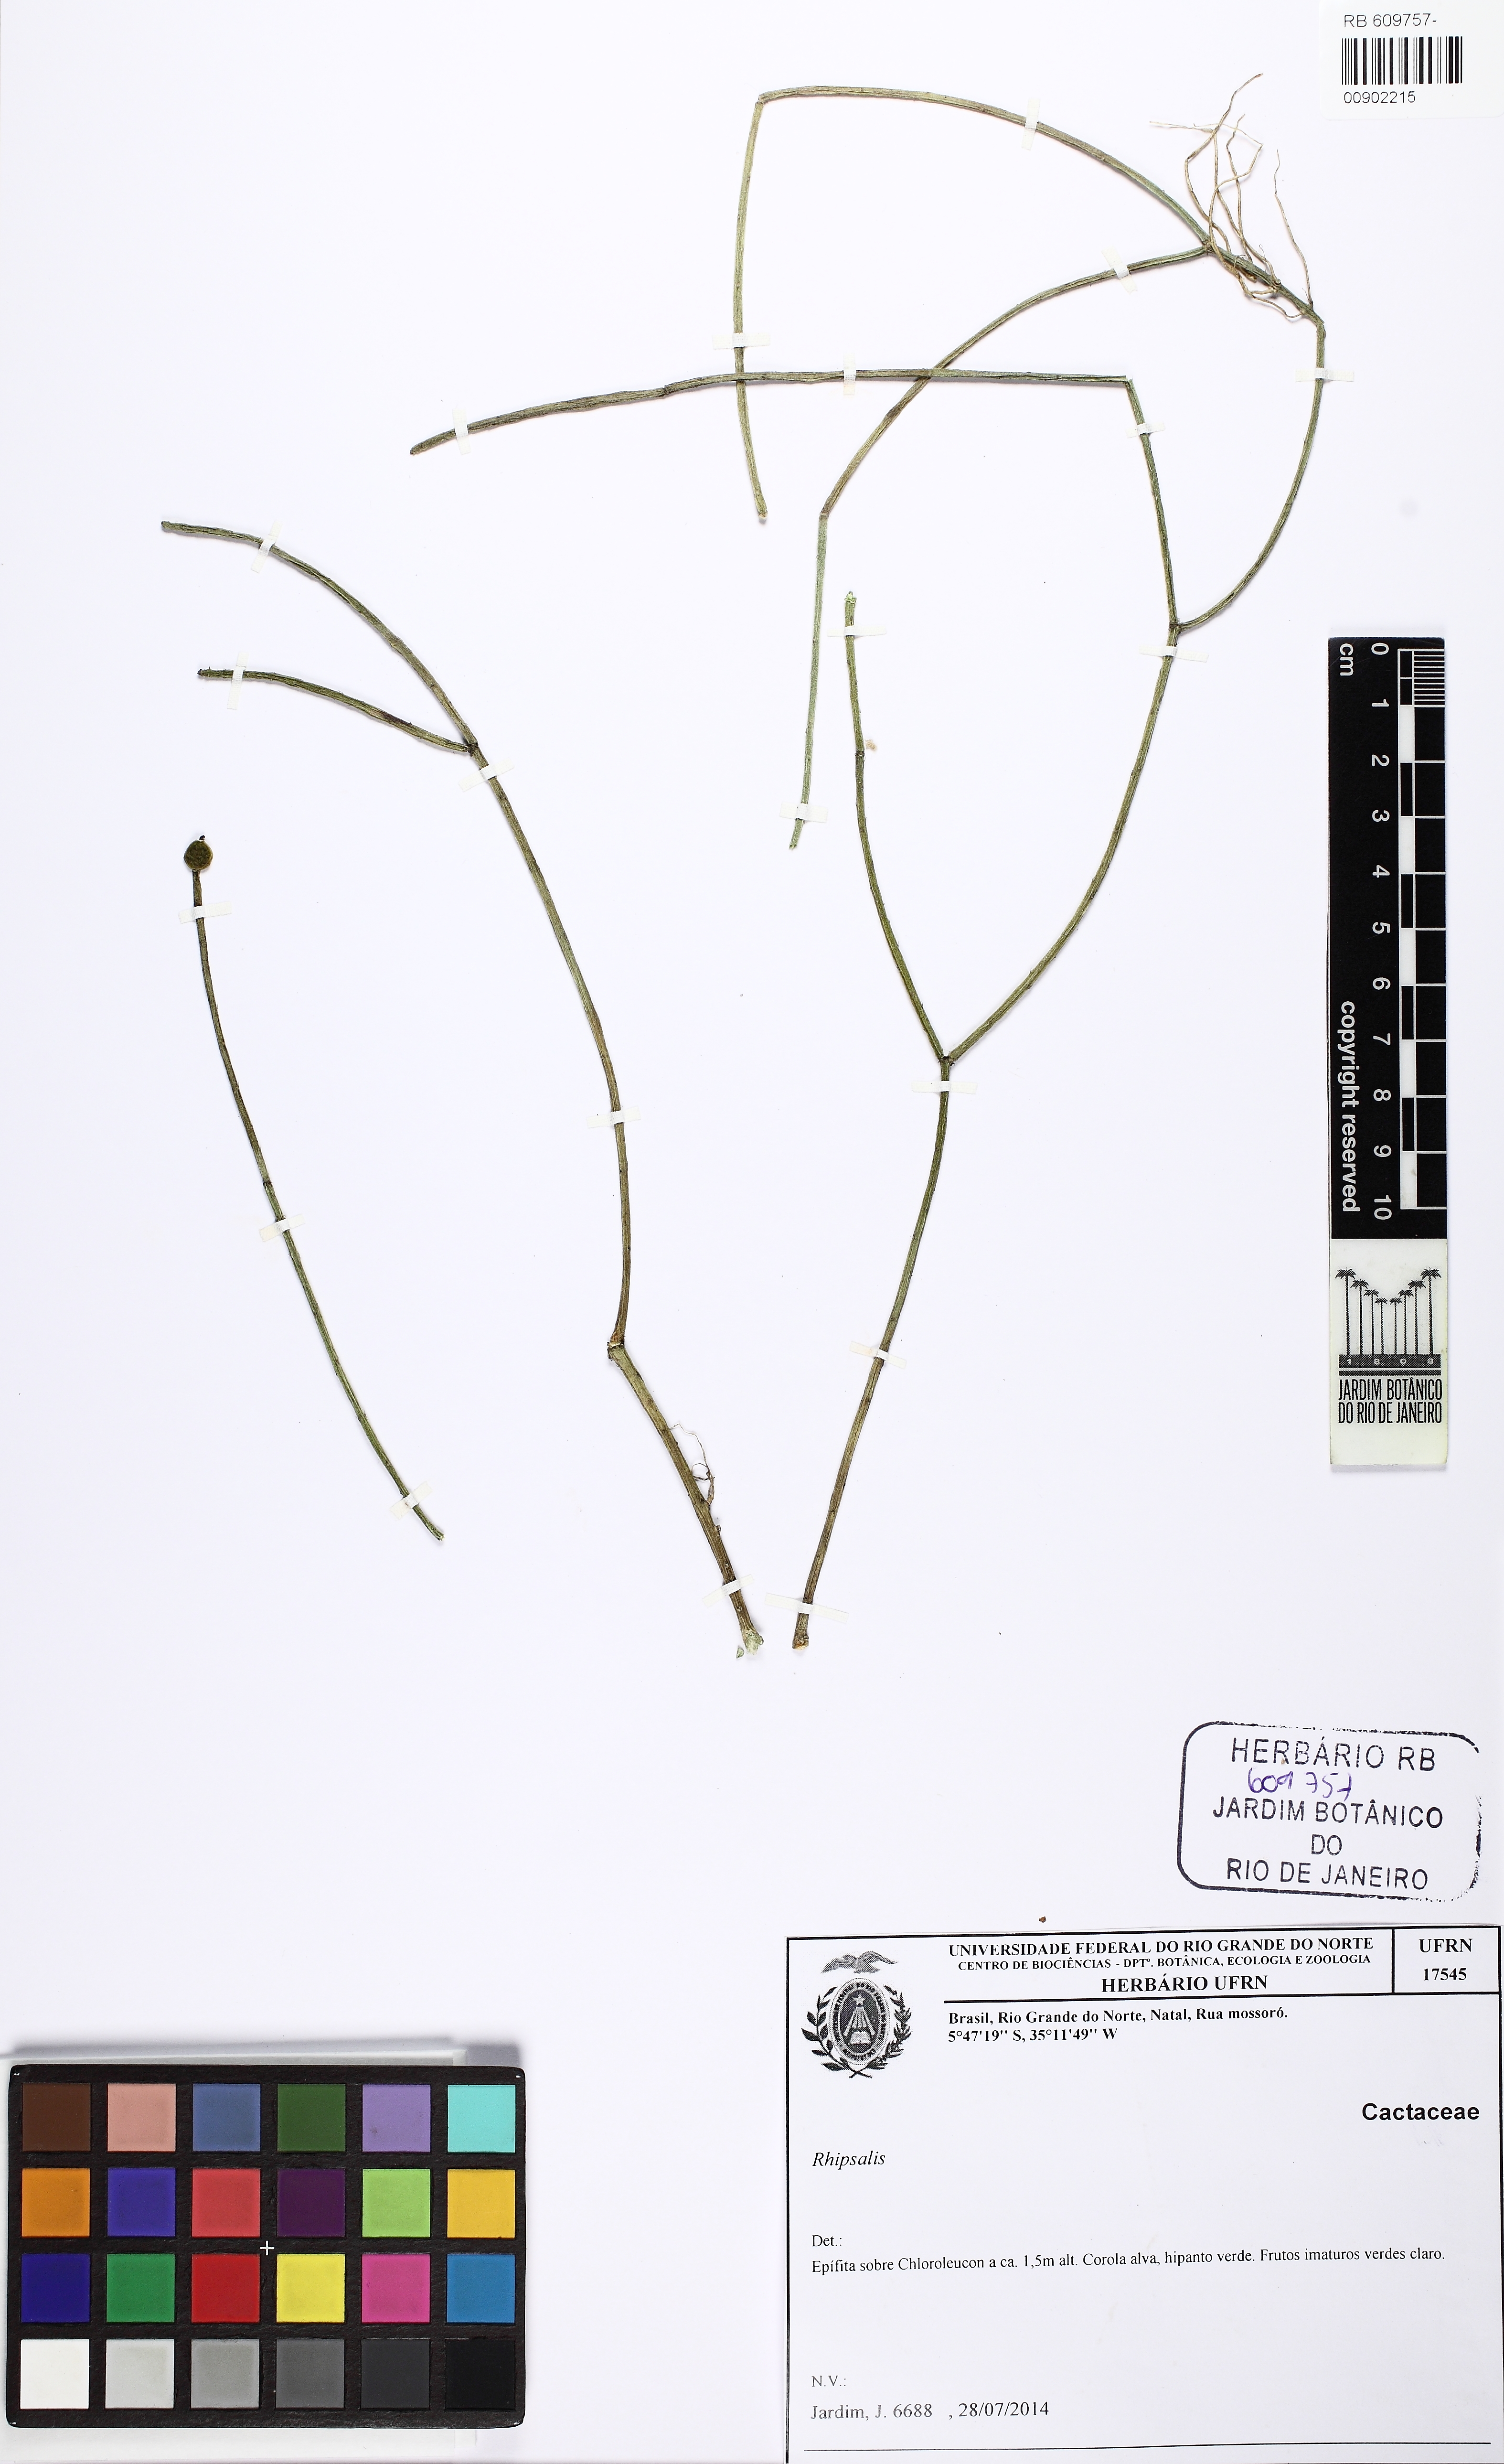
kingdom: Plantae
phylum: Tracheophyta
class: Magnoliopsida
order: Caryophyllales
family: Cactaceae
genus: Rhipsalis
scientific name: Rhipsalis baccifera
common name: Mistletoe cactus
